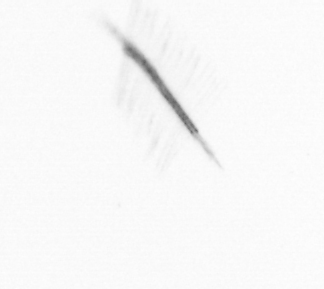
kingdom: Chromista
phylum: Ochrophyta
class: Bacillariophyceae
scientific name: Bacillariophyceae
